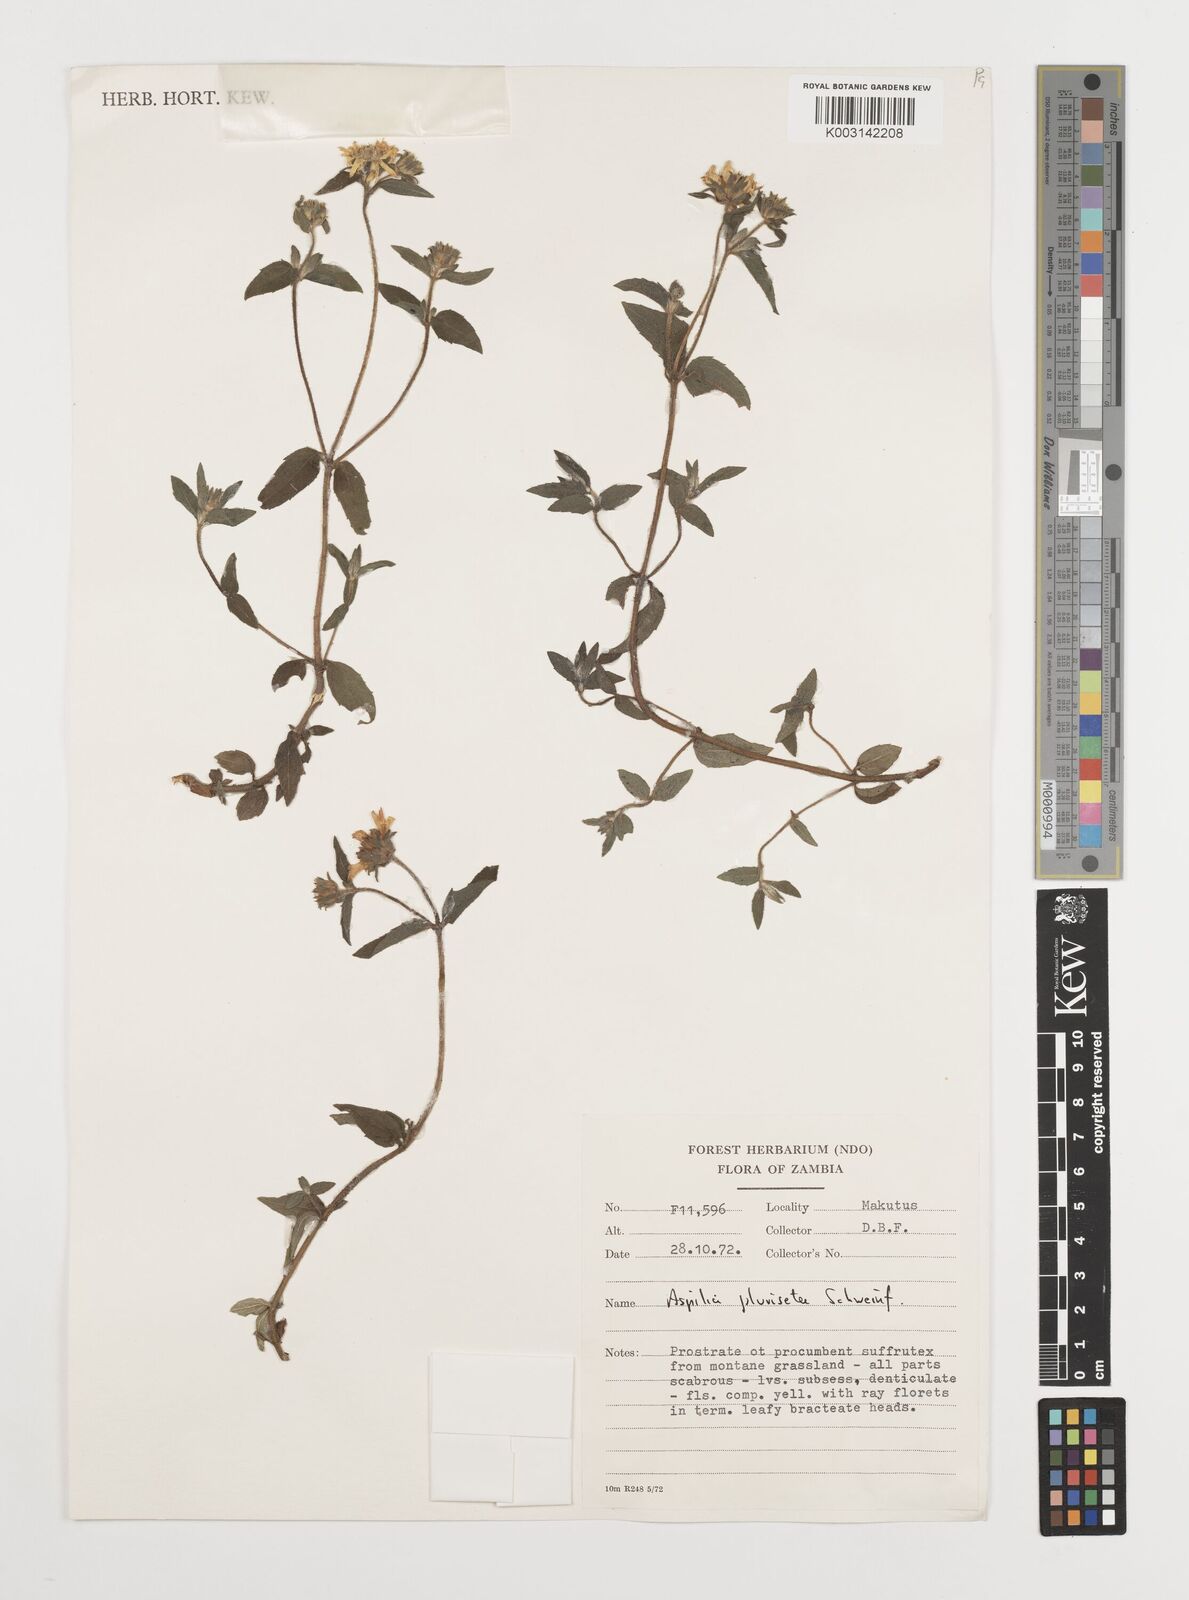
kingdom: Plantae
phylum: Tracheophyta
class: Magnoliopsida
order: Asterales
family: Asteraceae
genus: Aspilia
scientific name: Aspilia pluriseta
